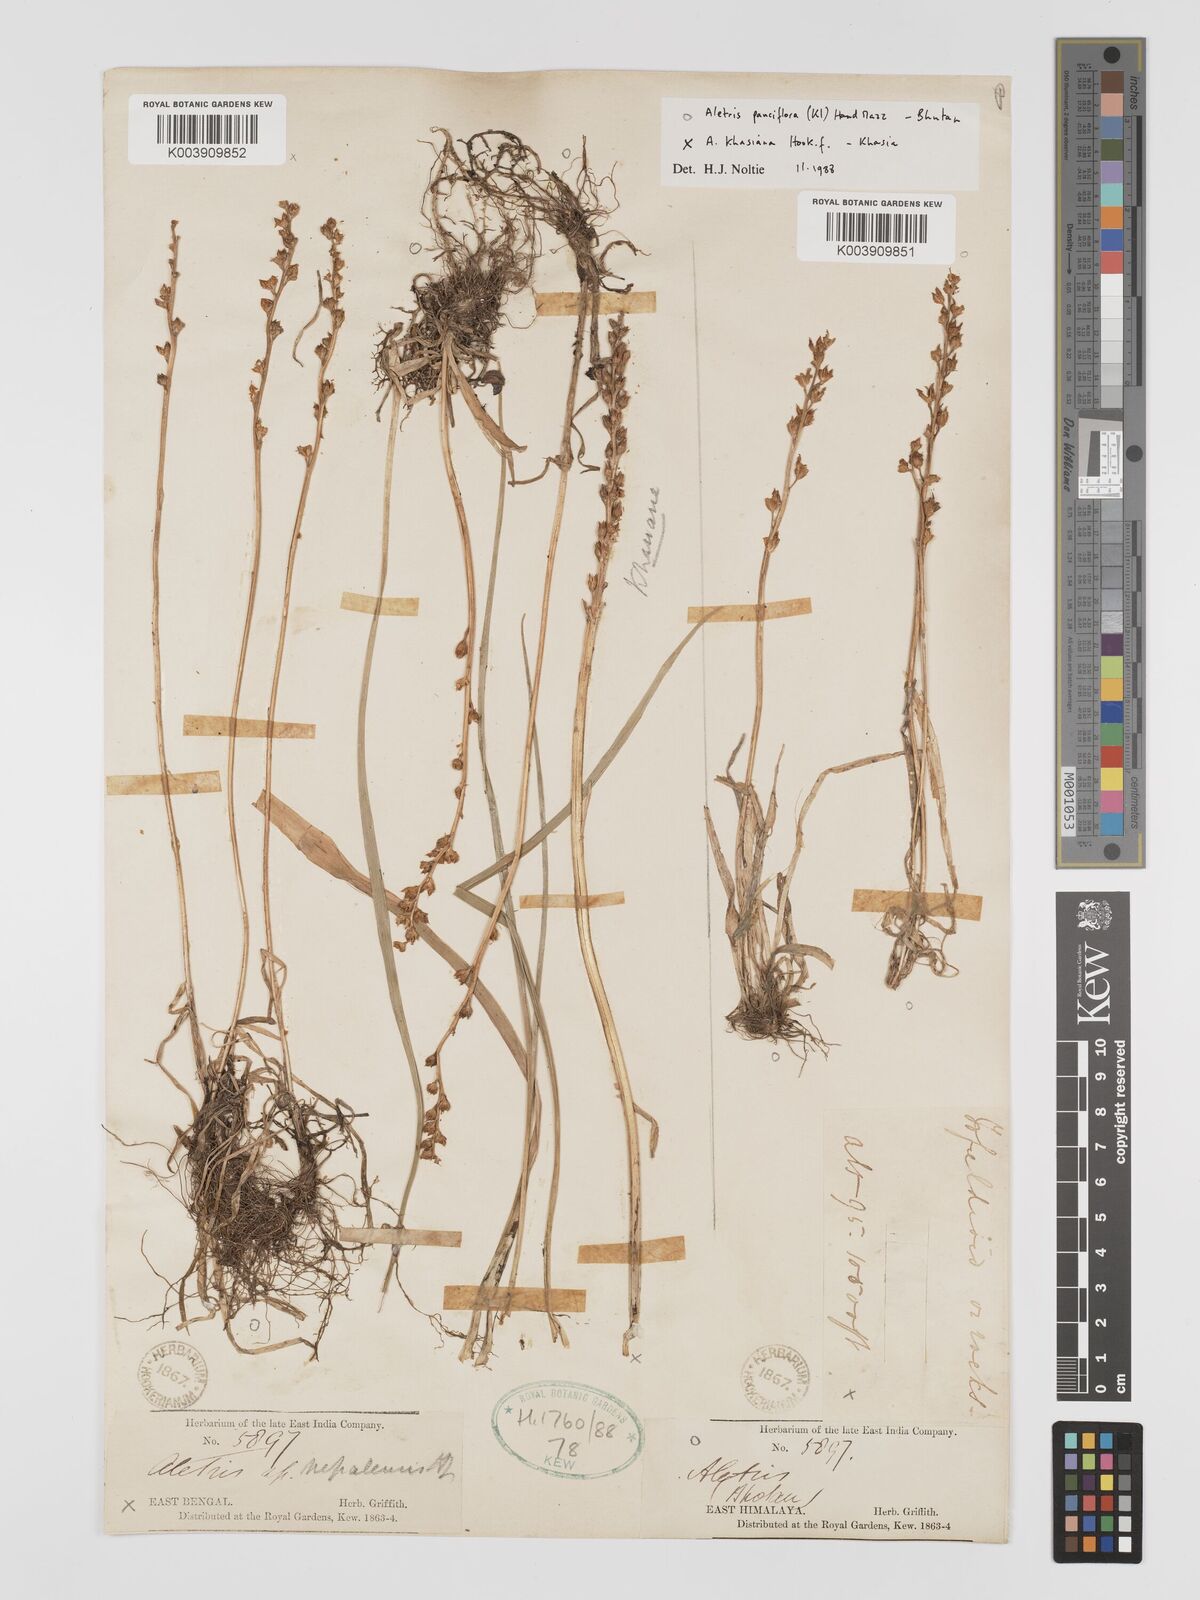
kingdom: Plantae
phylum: Tracheophyta
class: Liliopsida
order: Dioscoreales
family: Nartheciaceae
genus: Aletris
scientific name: Aletris pauciflora
